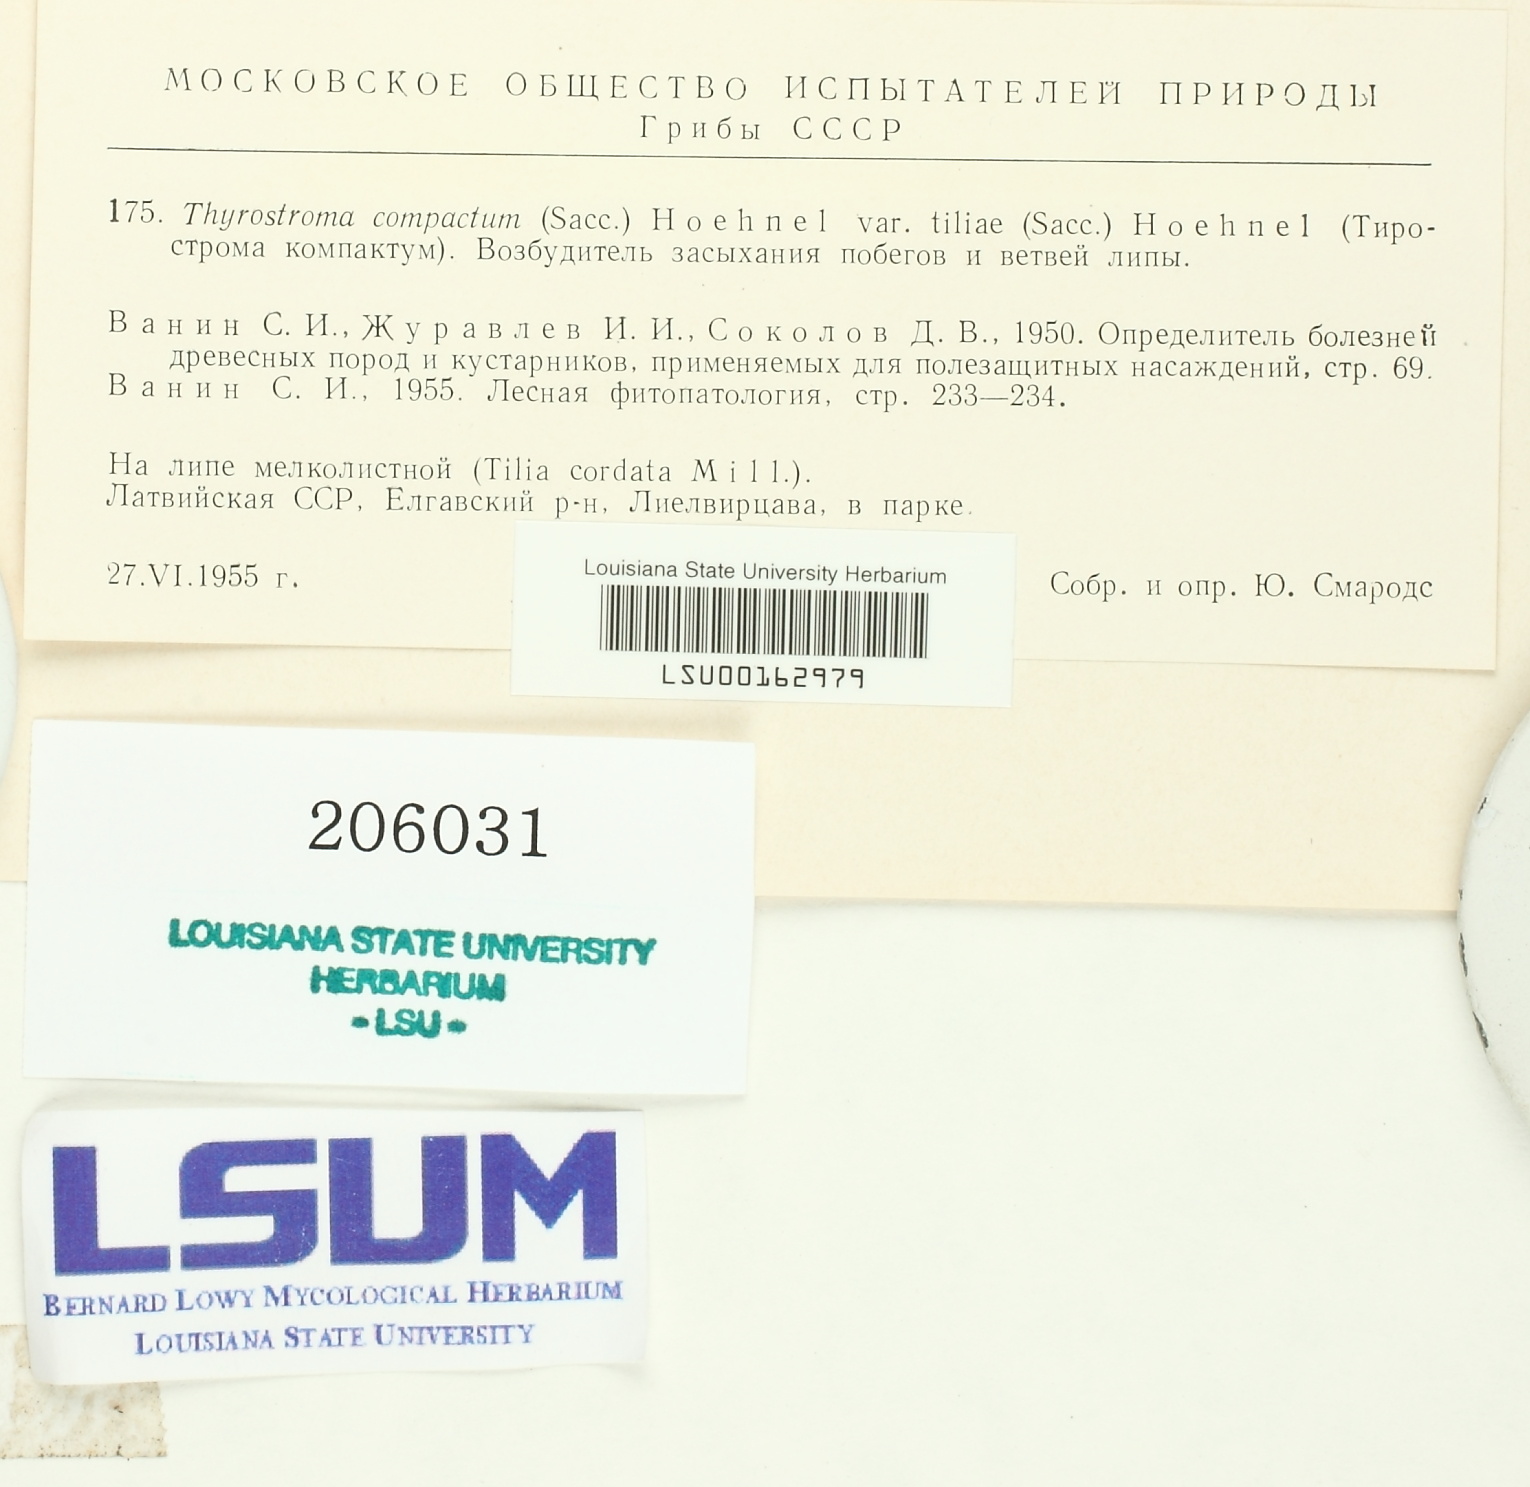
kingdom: Fungi
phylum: Ascomycota
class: Dothideomycetes
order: Botryosphaeriales
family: Botryosphaeriaceae
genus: Thyrostroma
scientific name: Thyrostroma compactum
